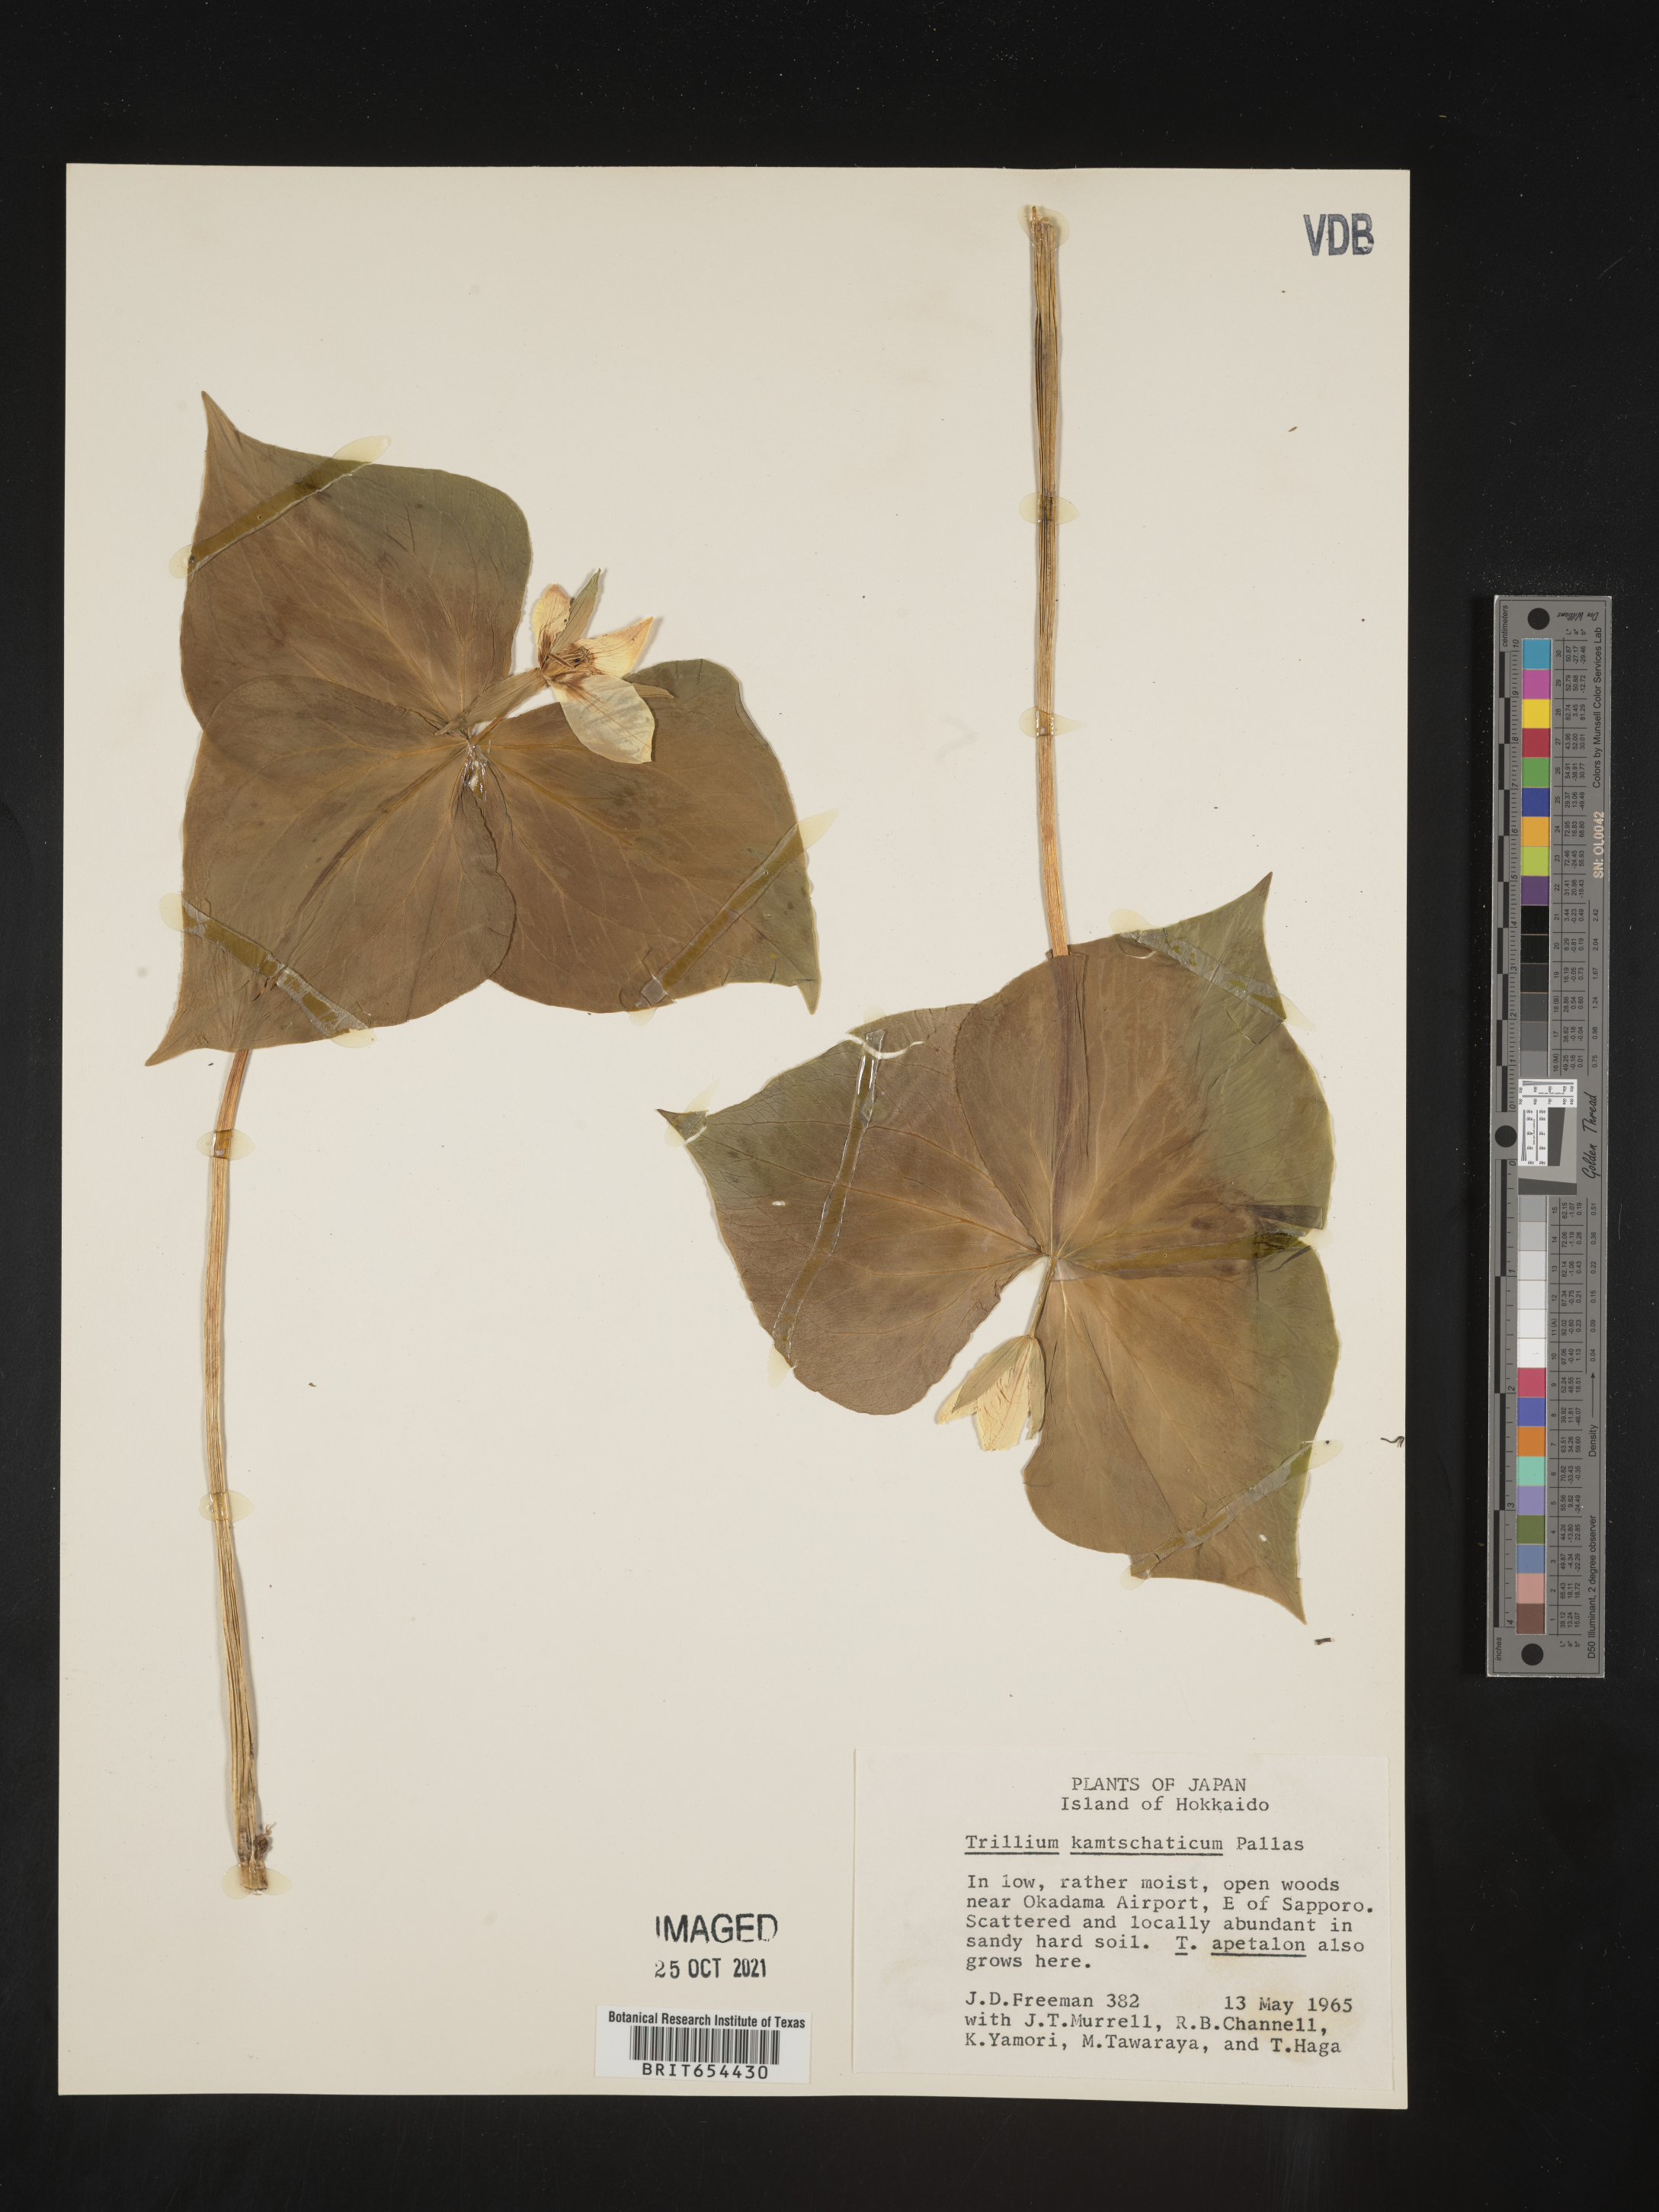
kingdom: Plantae
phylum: Tracheophyta
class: Liliopsida
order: Liliales
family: Melanthiaceae
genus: Trillium
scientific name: Trillium
